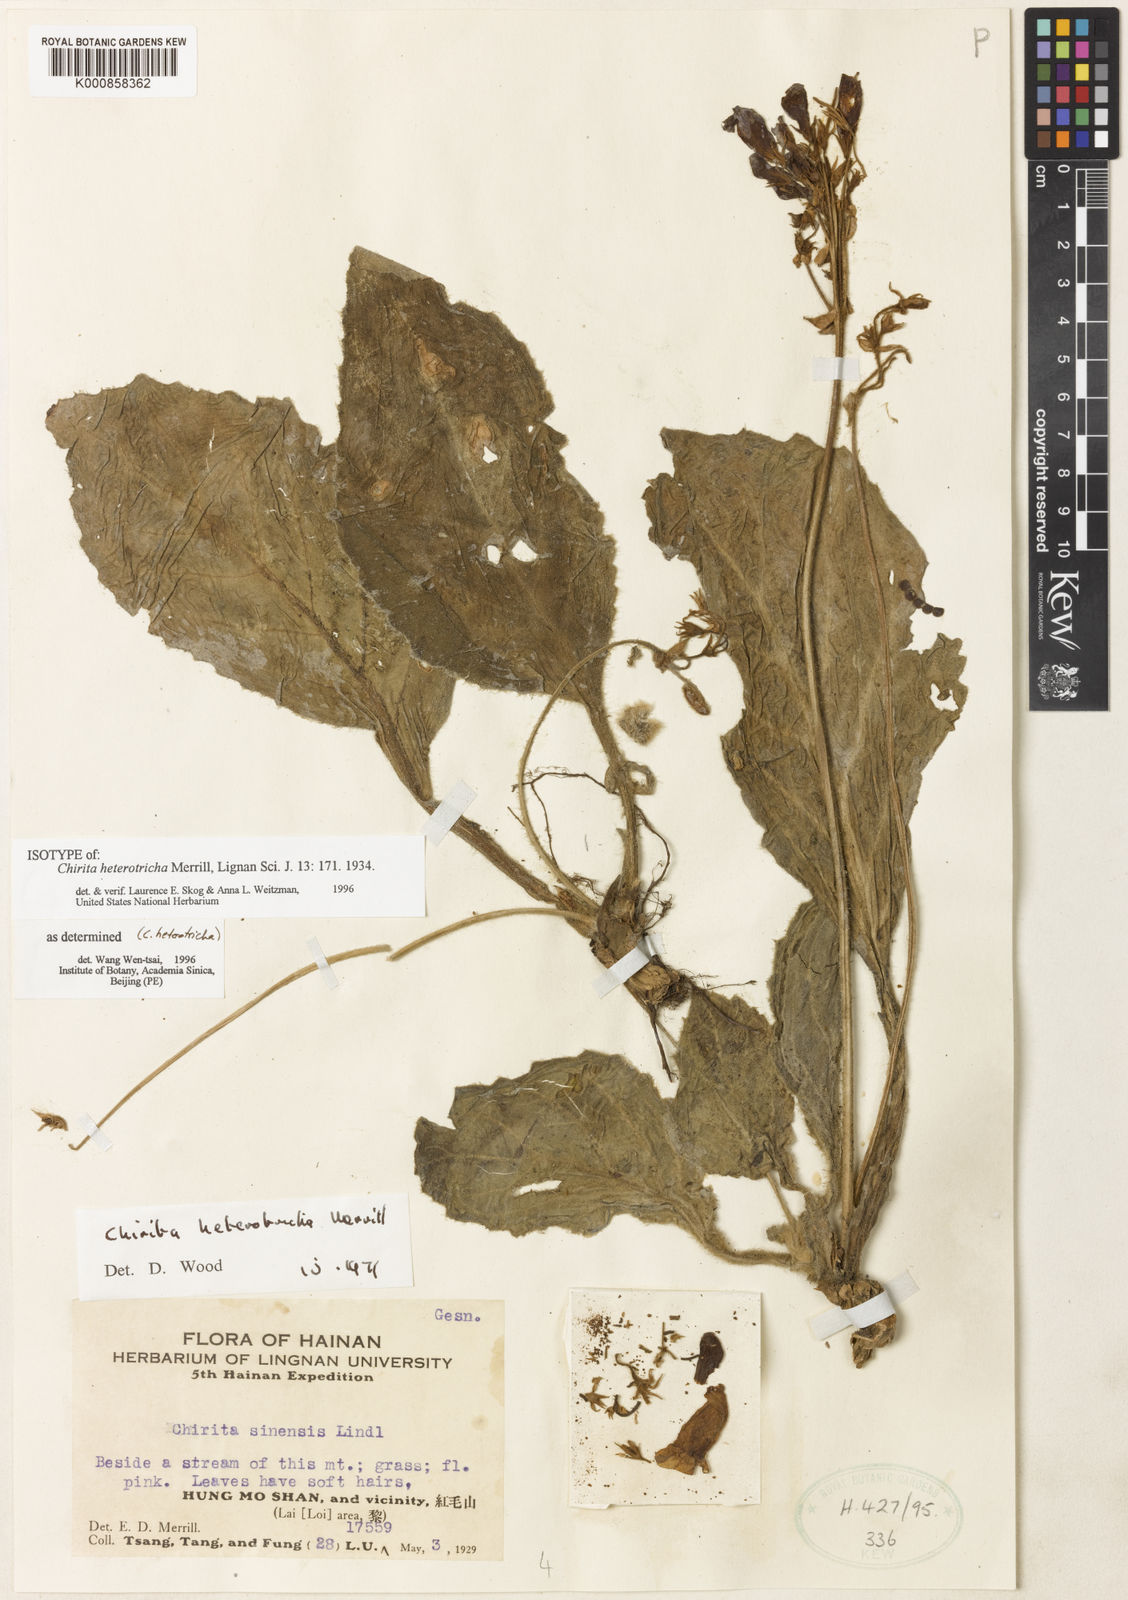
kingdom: Plantae
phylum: Tracheophyta
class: Magnoliopsida
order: Lamiales
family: Gesneriaceae
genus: Primulina
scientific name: Primulina heterotricha
